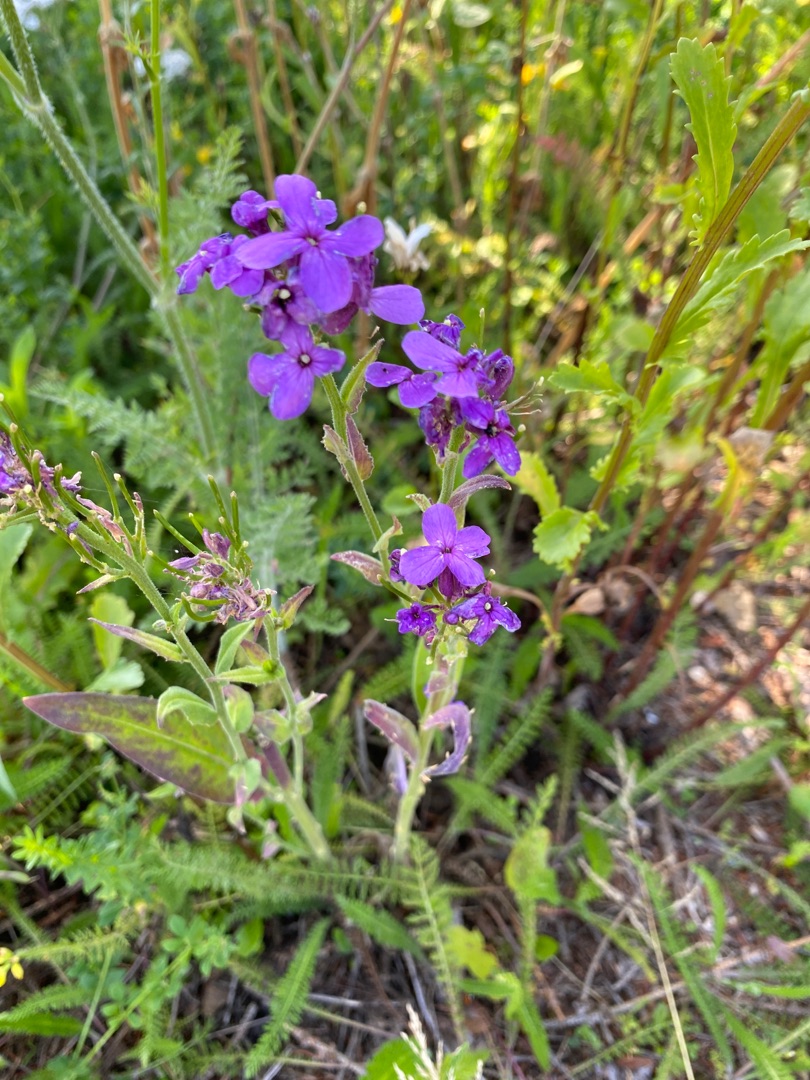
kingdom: Plantae
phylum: Tracheophyta
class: Magnoliopsida
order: Brassicales
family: Brassicaceae
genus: Hesperis
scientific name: Hesperis matronalis
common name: Aftenstjerne
